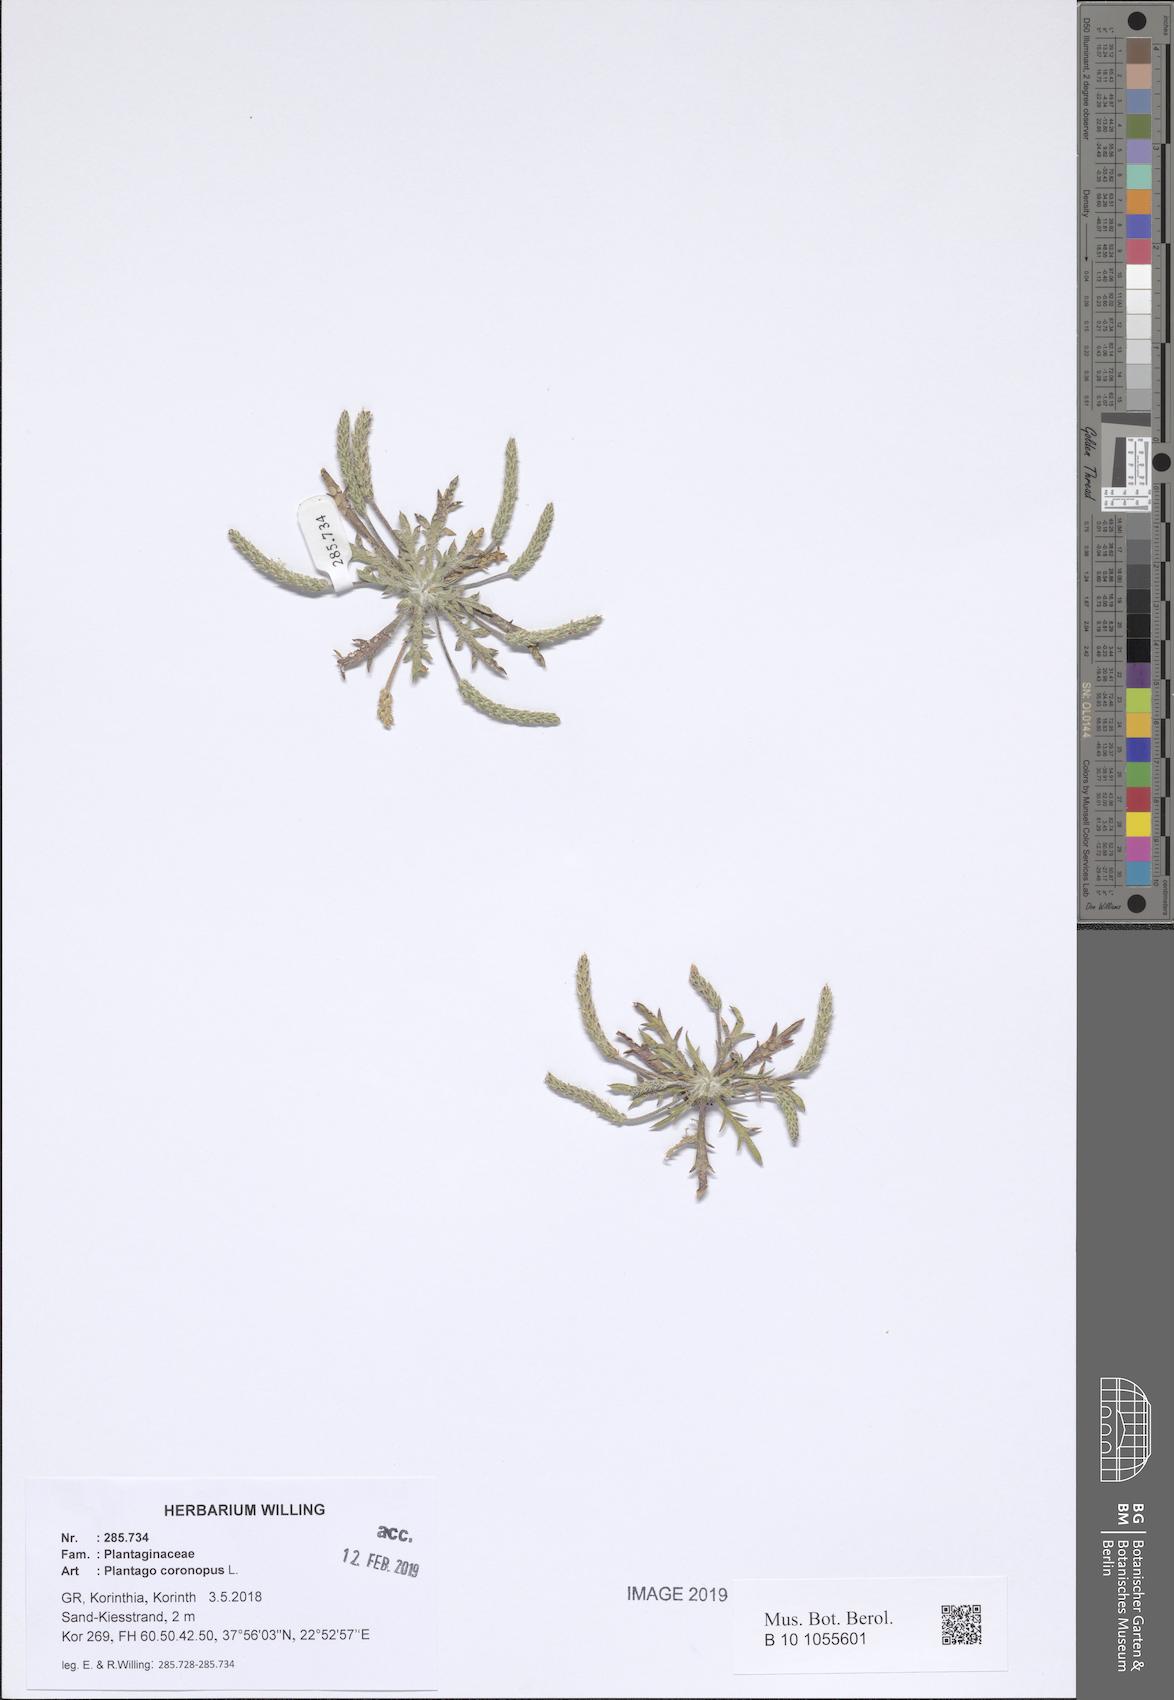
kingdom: Plantae
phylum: Tracheophyta
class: Magnoliopsida
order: Lamiales
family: Plantaginaceae
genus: Plantago
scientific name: Plantago coronopus
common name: Buck's-horn plantain
